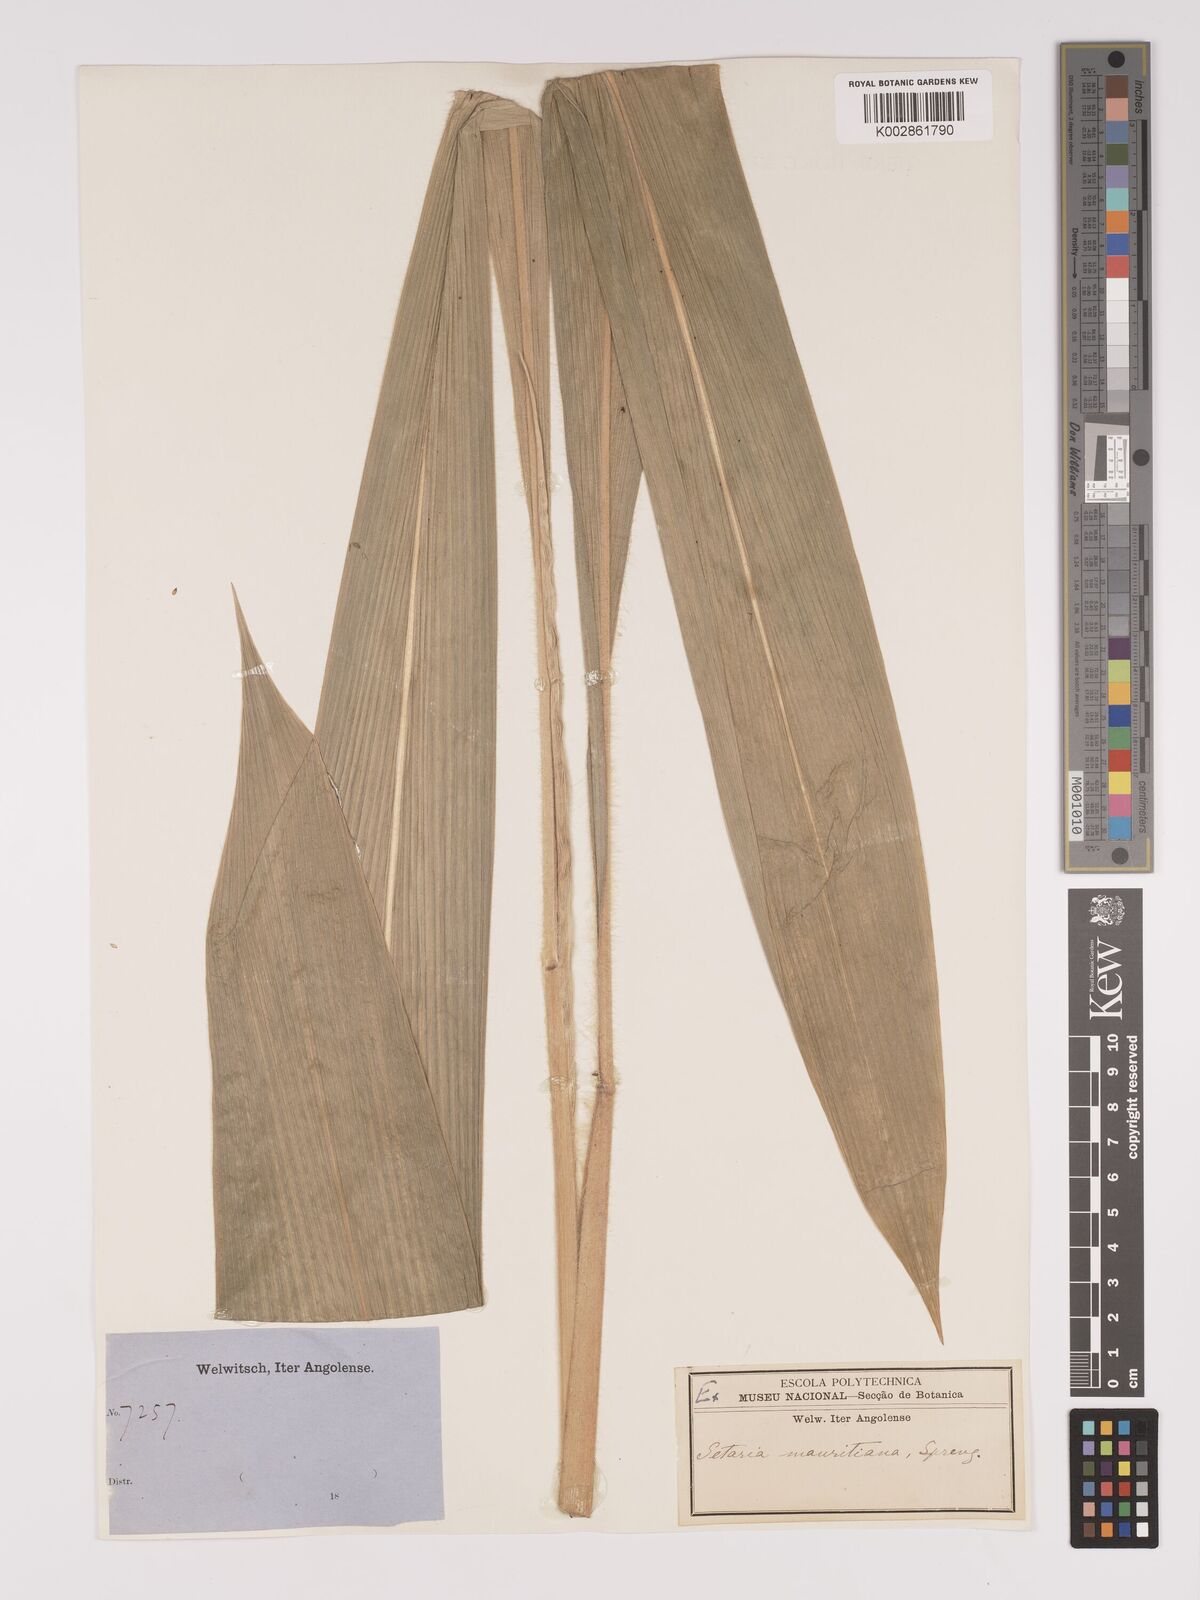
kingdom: Plantae
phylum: Tracheophyta
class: Liliopsida
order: Poales
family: Poaceae
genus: Setaria
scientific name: Setaria megaphylla
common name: Bigleaf bristlegrass
